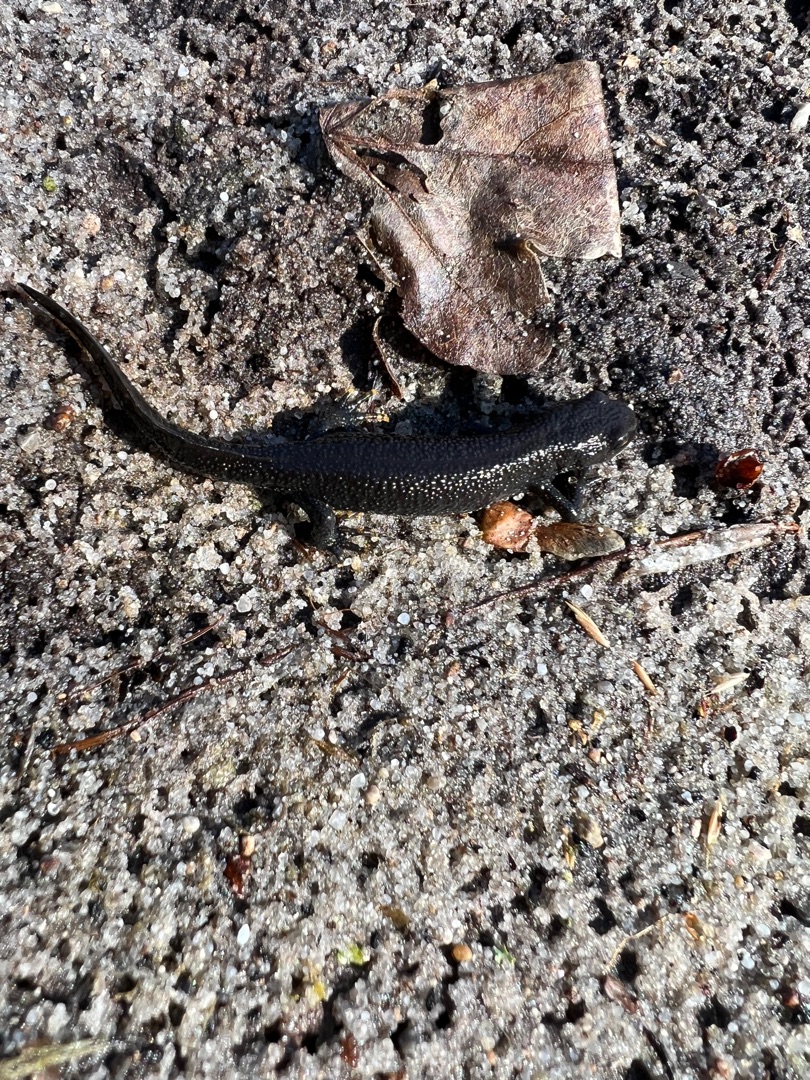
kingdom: Animalia
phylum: Chordata
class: Amphibia
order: Caudata
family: Salamandridae
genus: Triturus
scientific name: Triturus cristatus
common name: Stor vandsalamander
